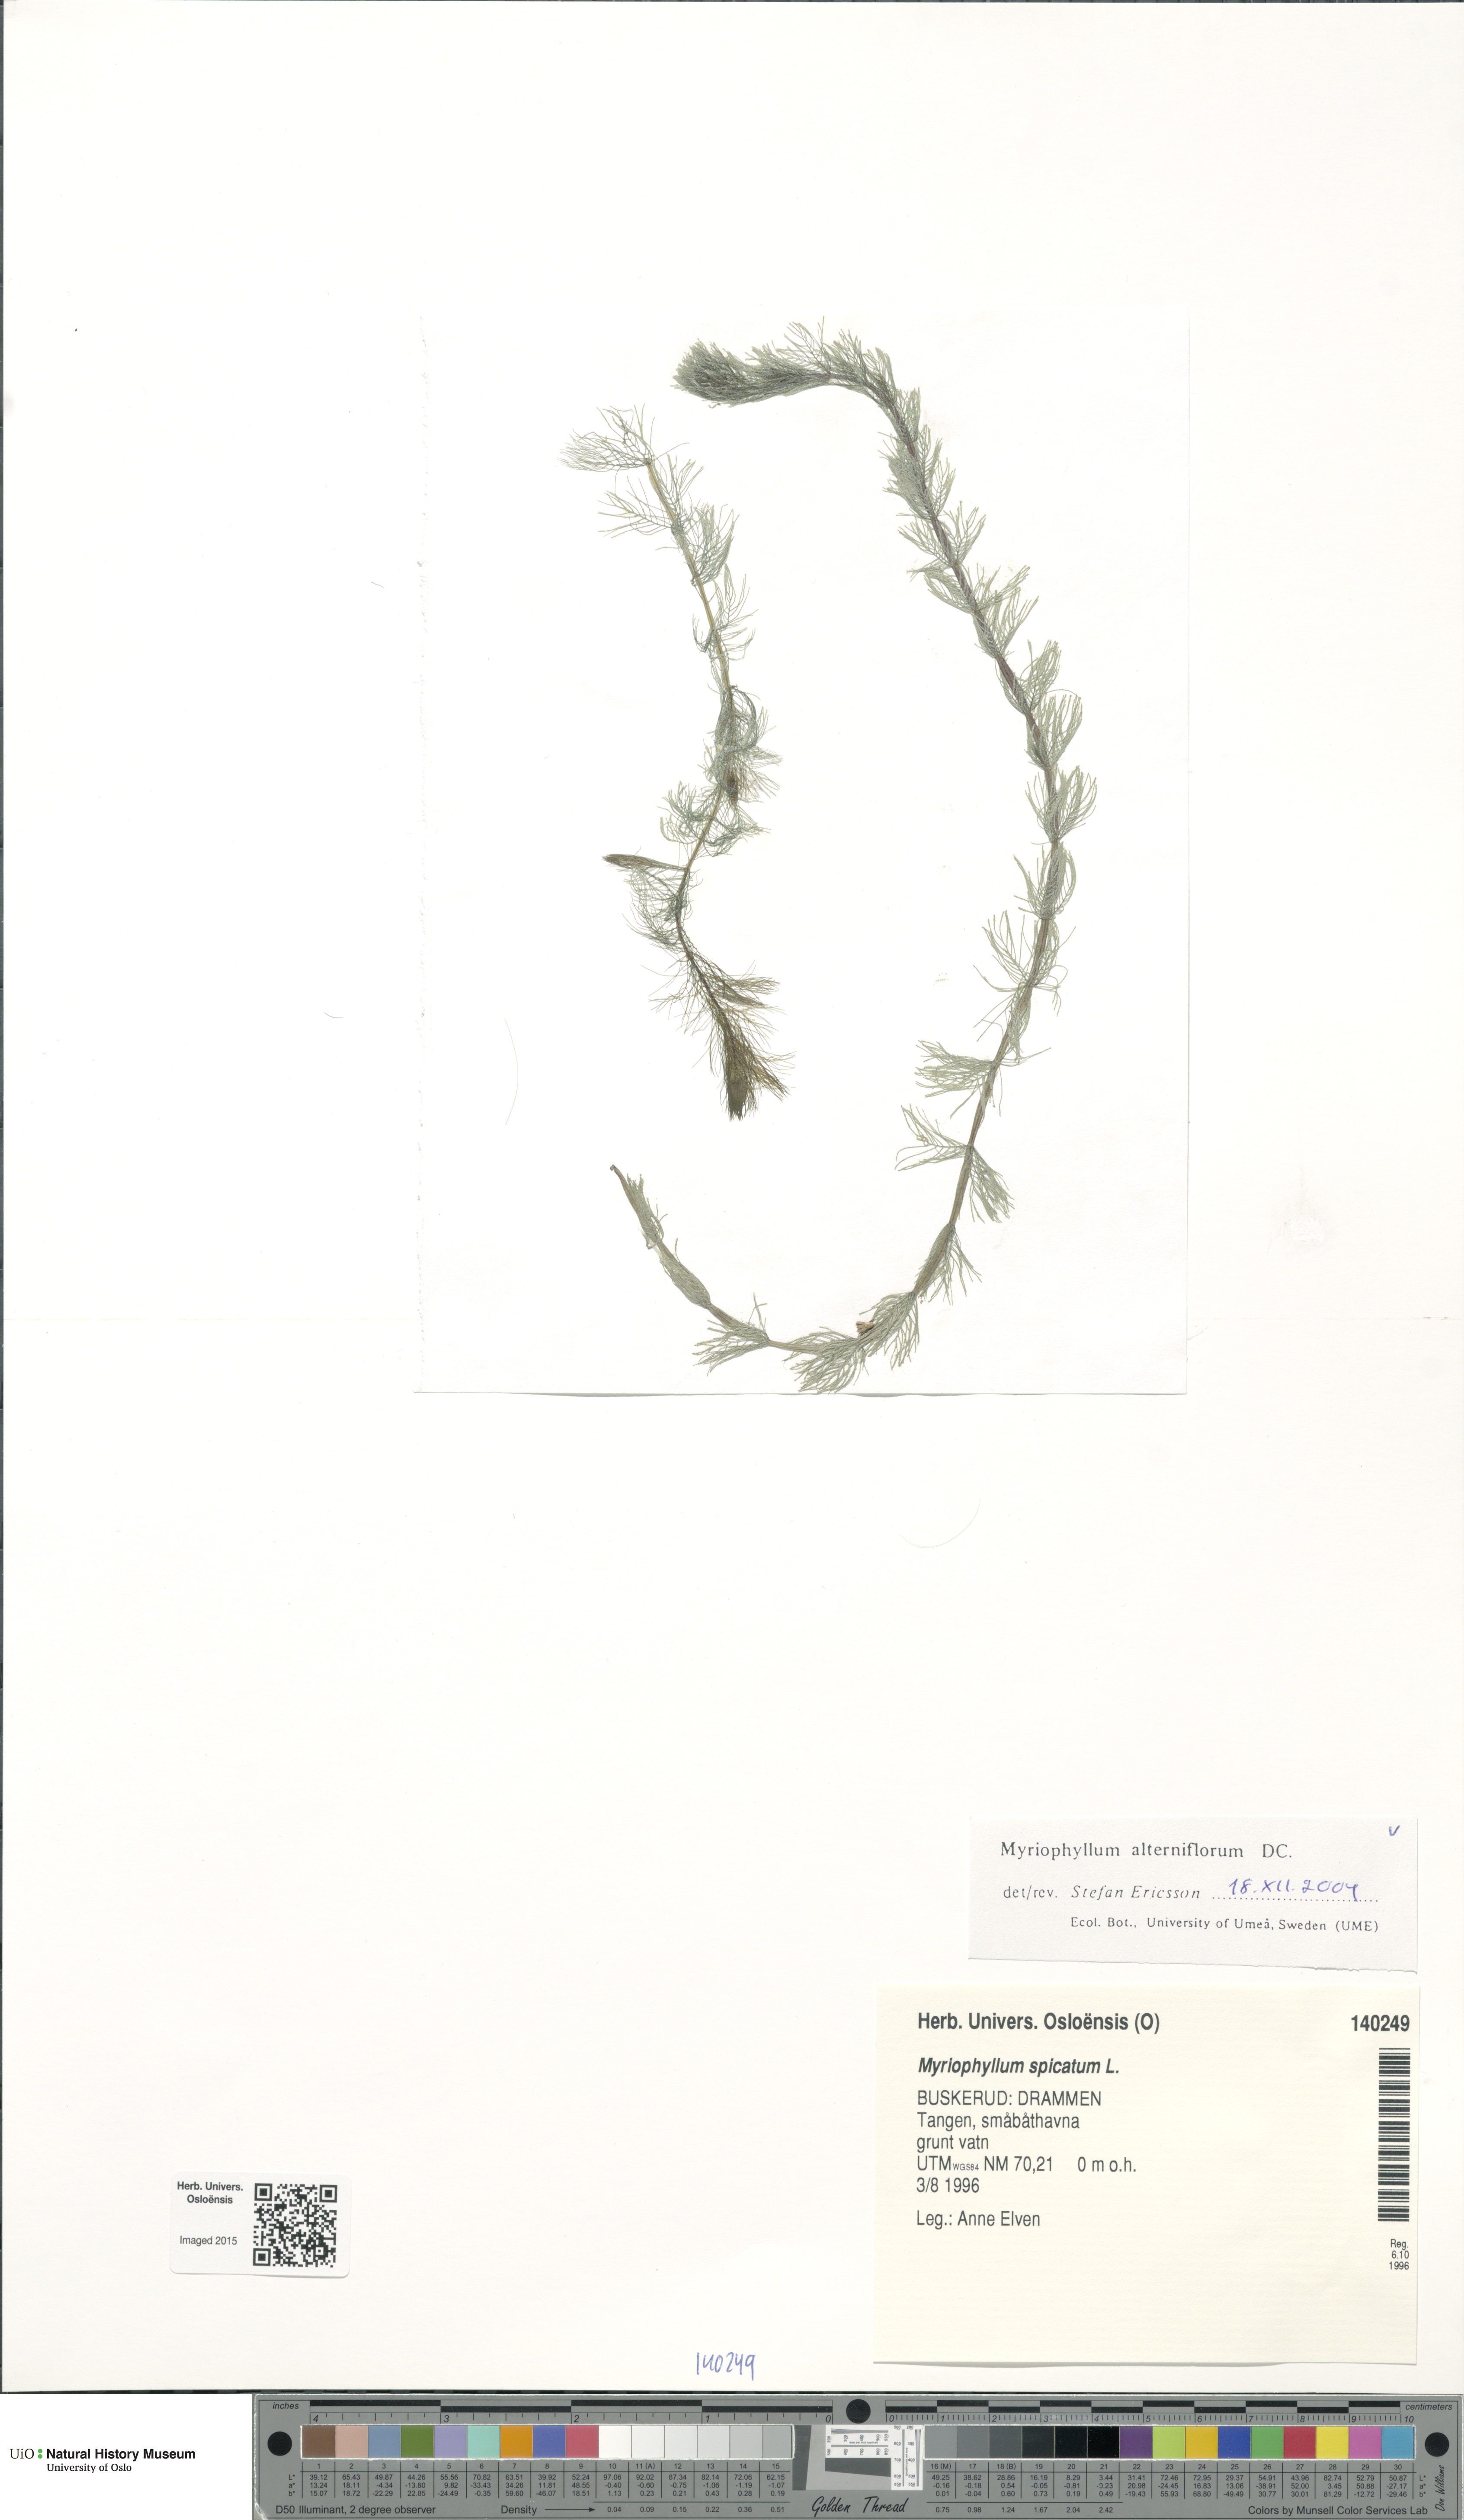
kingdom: Plantae
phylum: Tracheophyta
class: Magnoliopsida
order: Saxifragales
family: Haloragaceae
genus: Myriophyllum
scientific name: Myriophyllum alterniflorum
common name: Alternate water-milfoil
